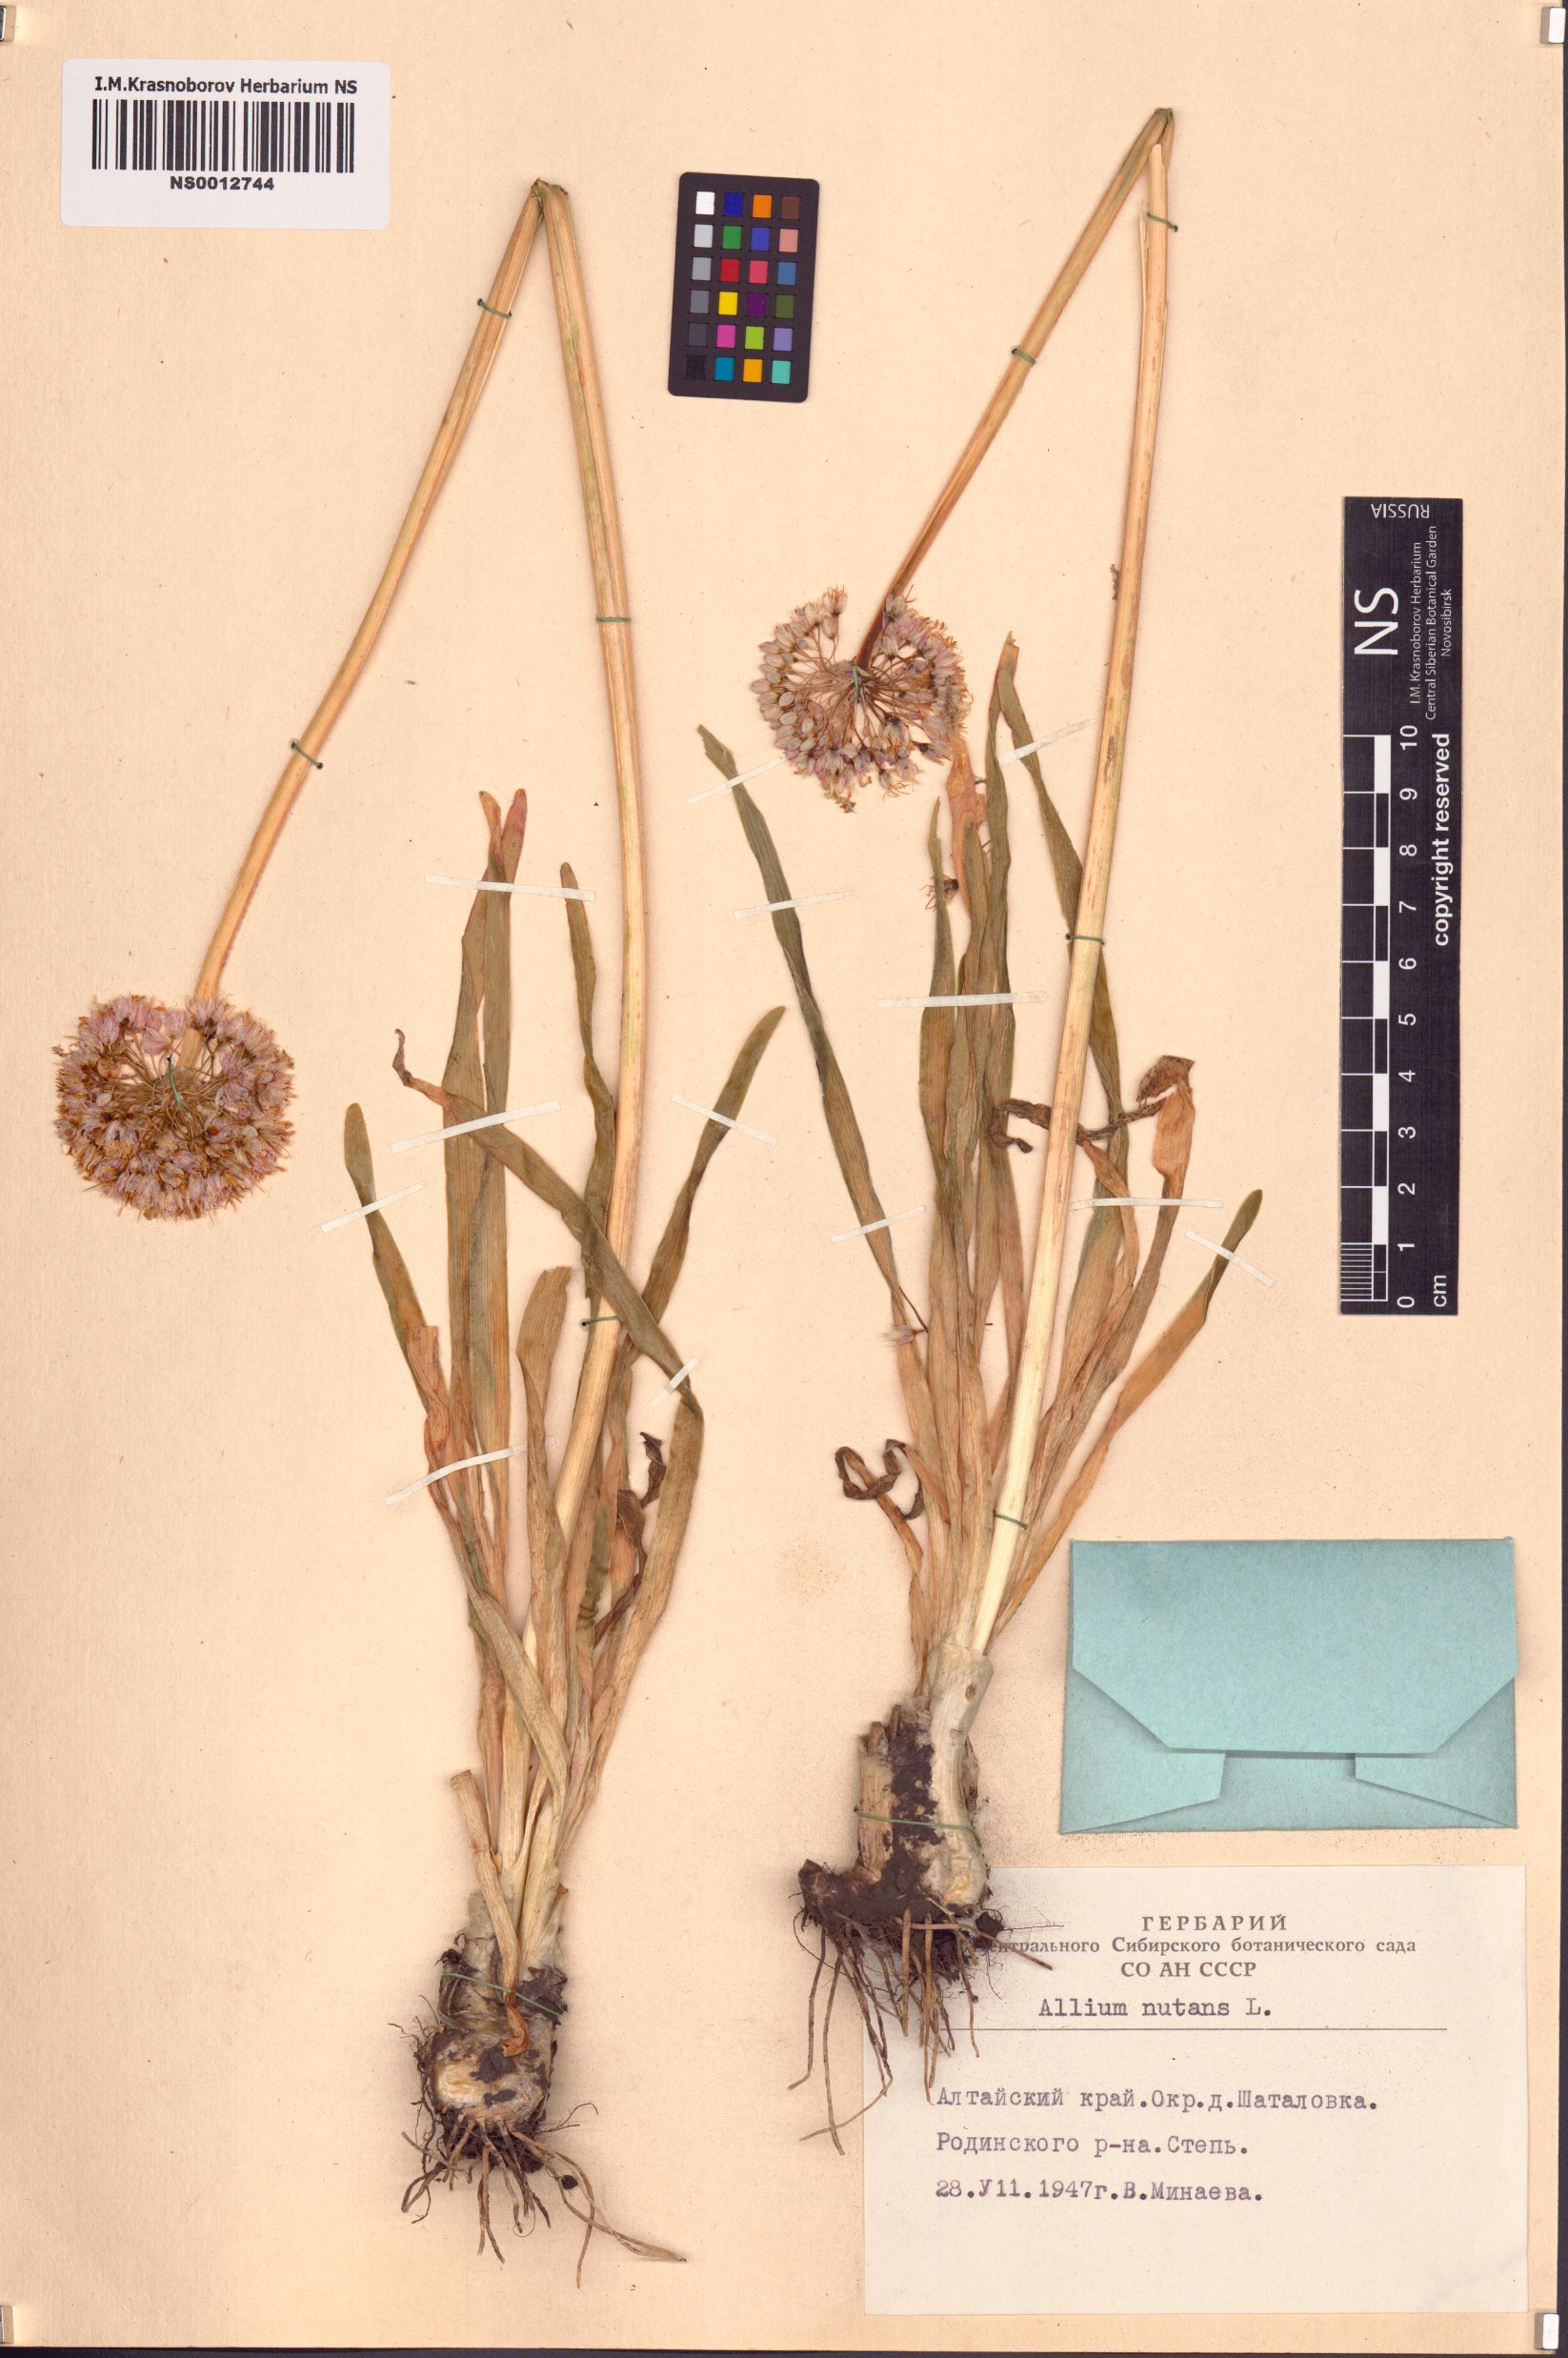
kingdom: Plantae
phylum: Tracheophyta
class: Liliopsida
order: Asparagales
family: Amaryllidaceae
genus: Allium
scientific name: Allium nutans
